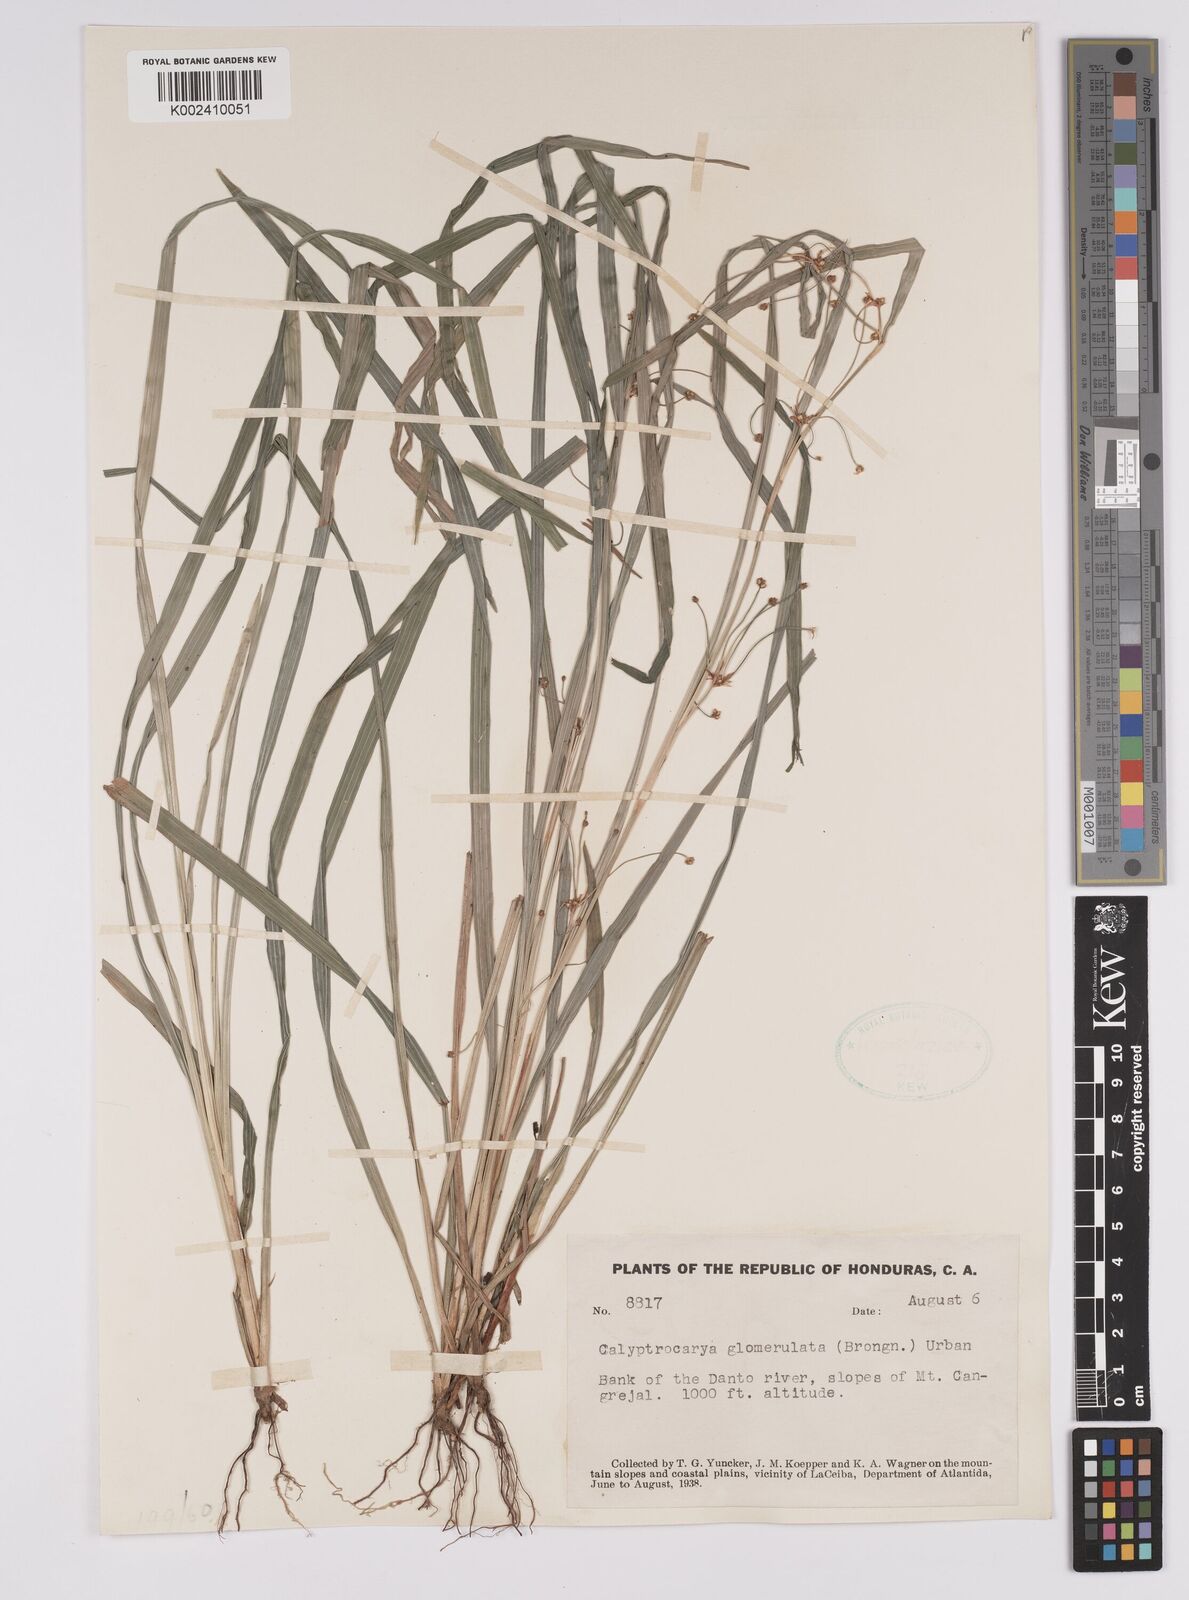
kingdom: Plantae
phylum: Tracheophyta
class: Liliopsida
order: Poales
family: Cyperaceae
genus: Calyptrocarya
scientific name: Calyptrocarya glomerulata
